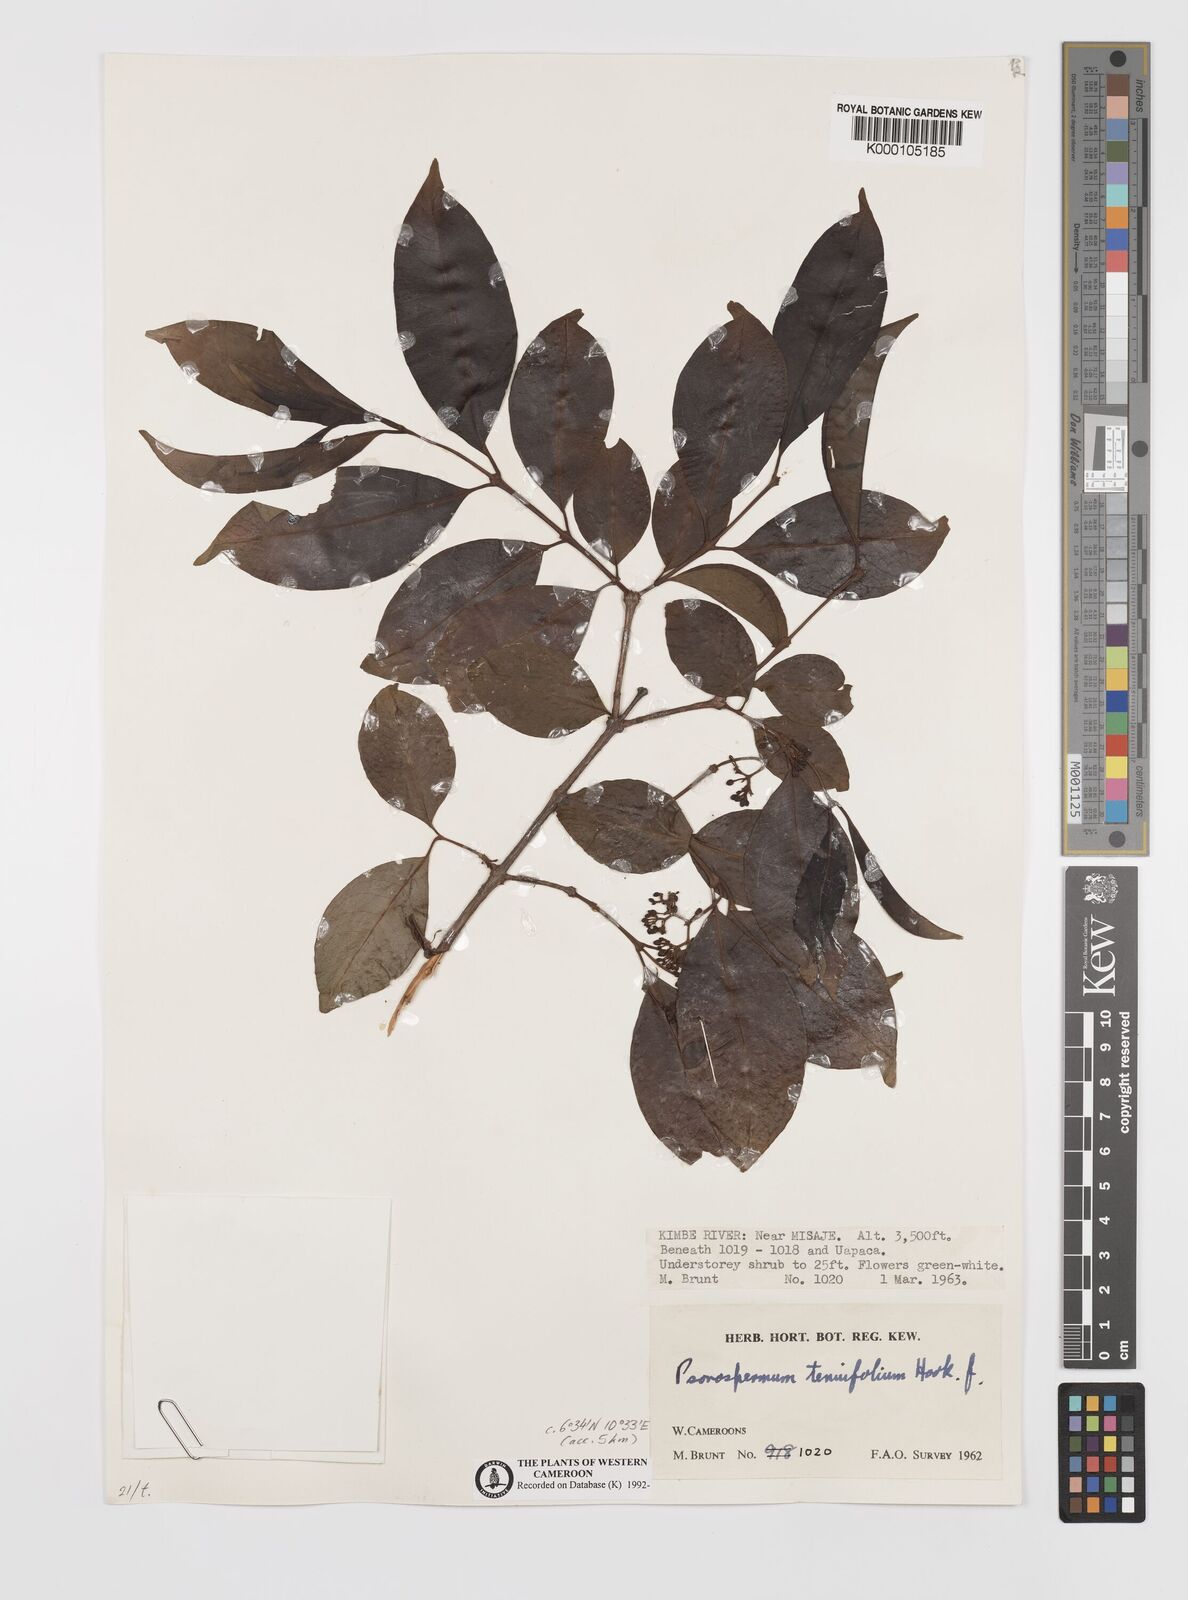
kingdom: Plantae
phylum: Tracheophyta
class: Magnoliopsida
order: Malpighiales
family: Hypericaceae
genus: Psorospermum
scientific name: Psorospermum tenuifolium
